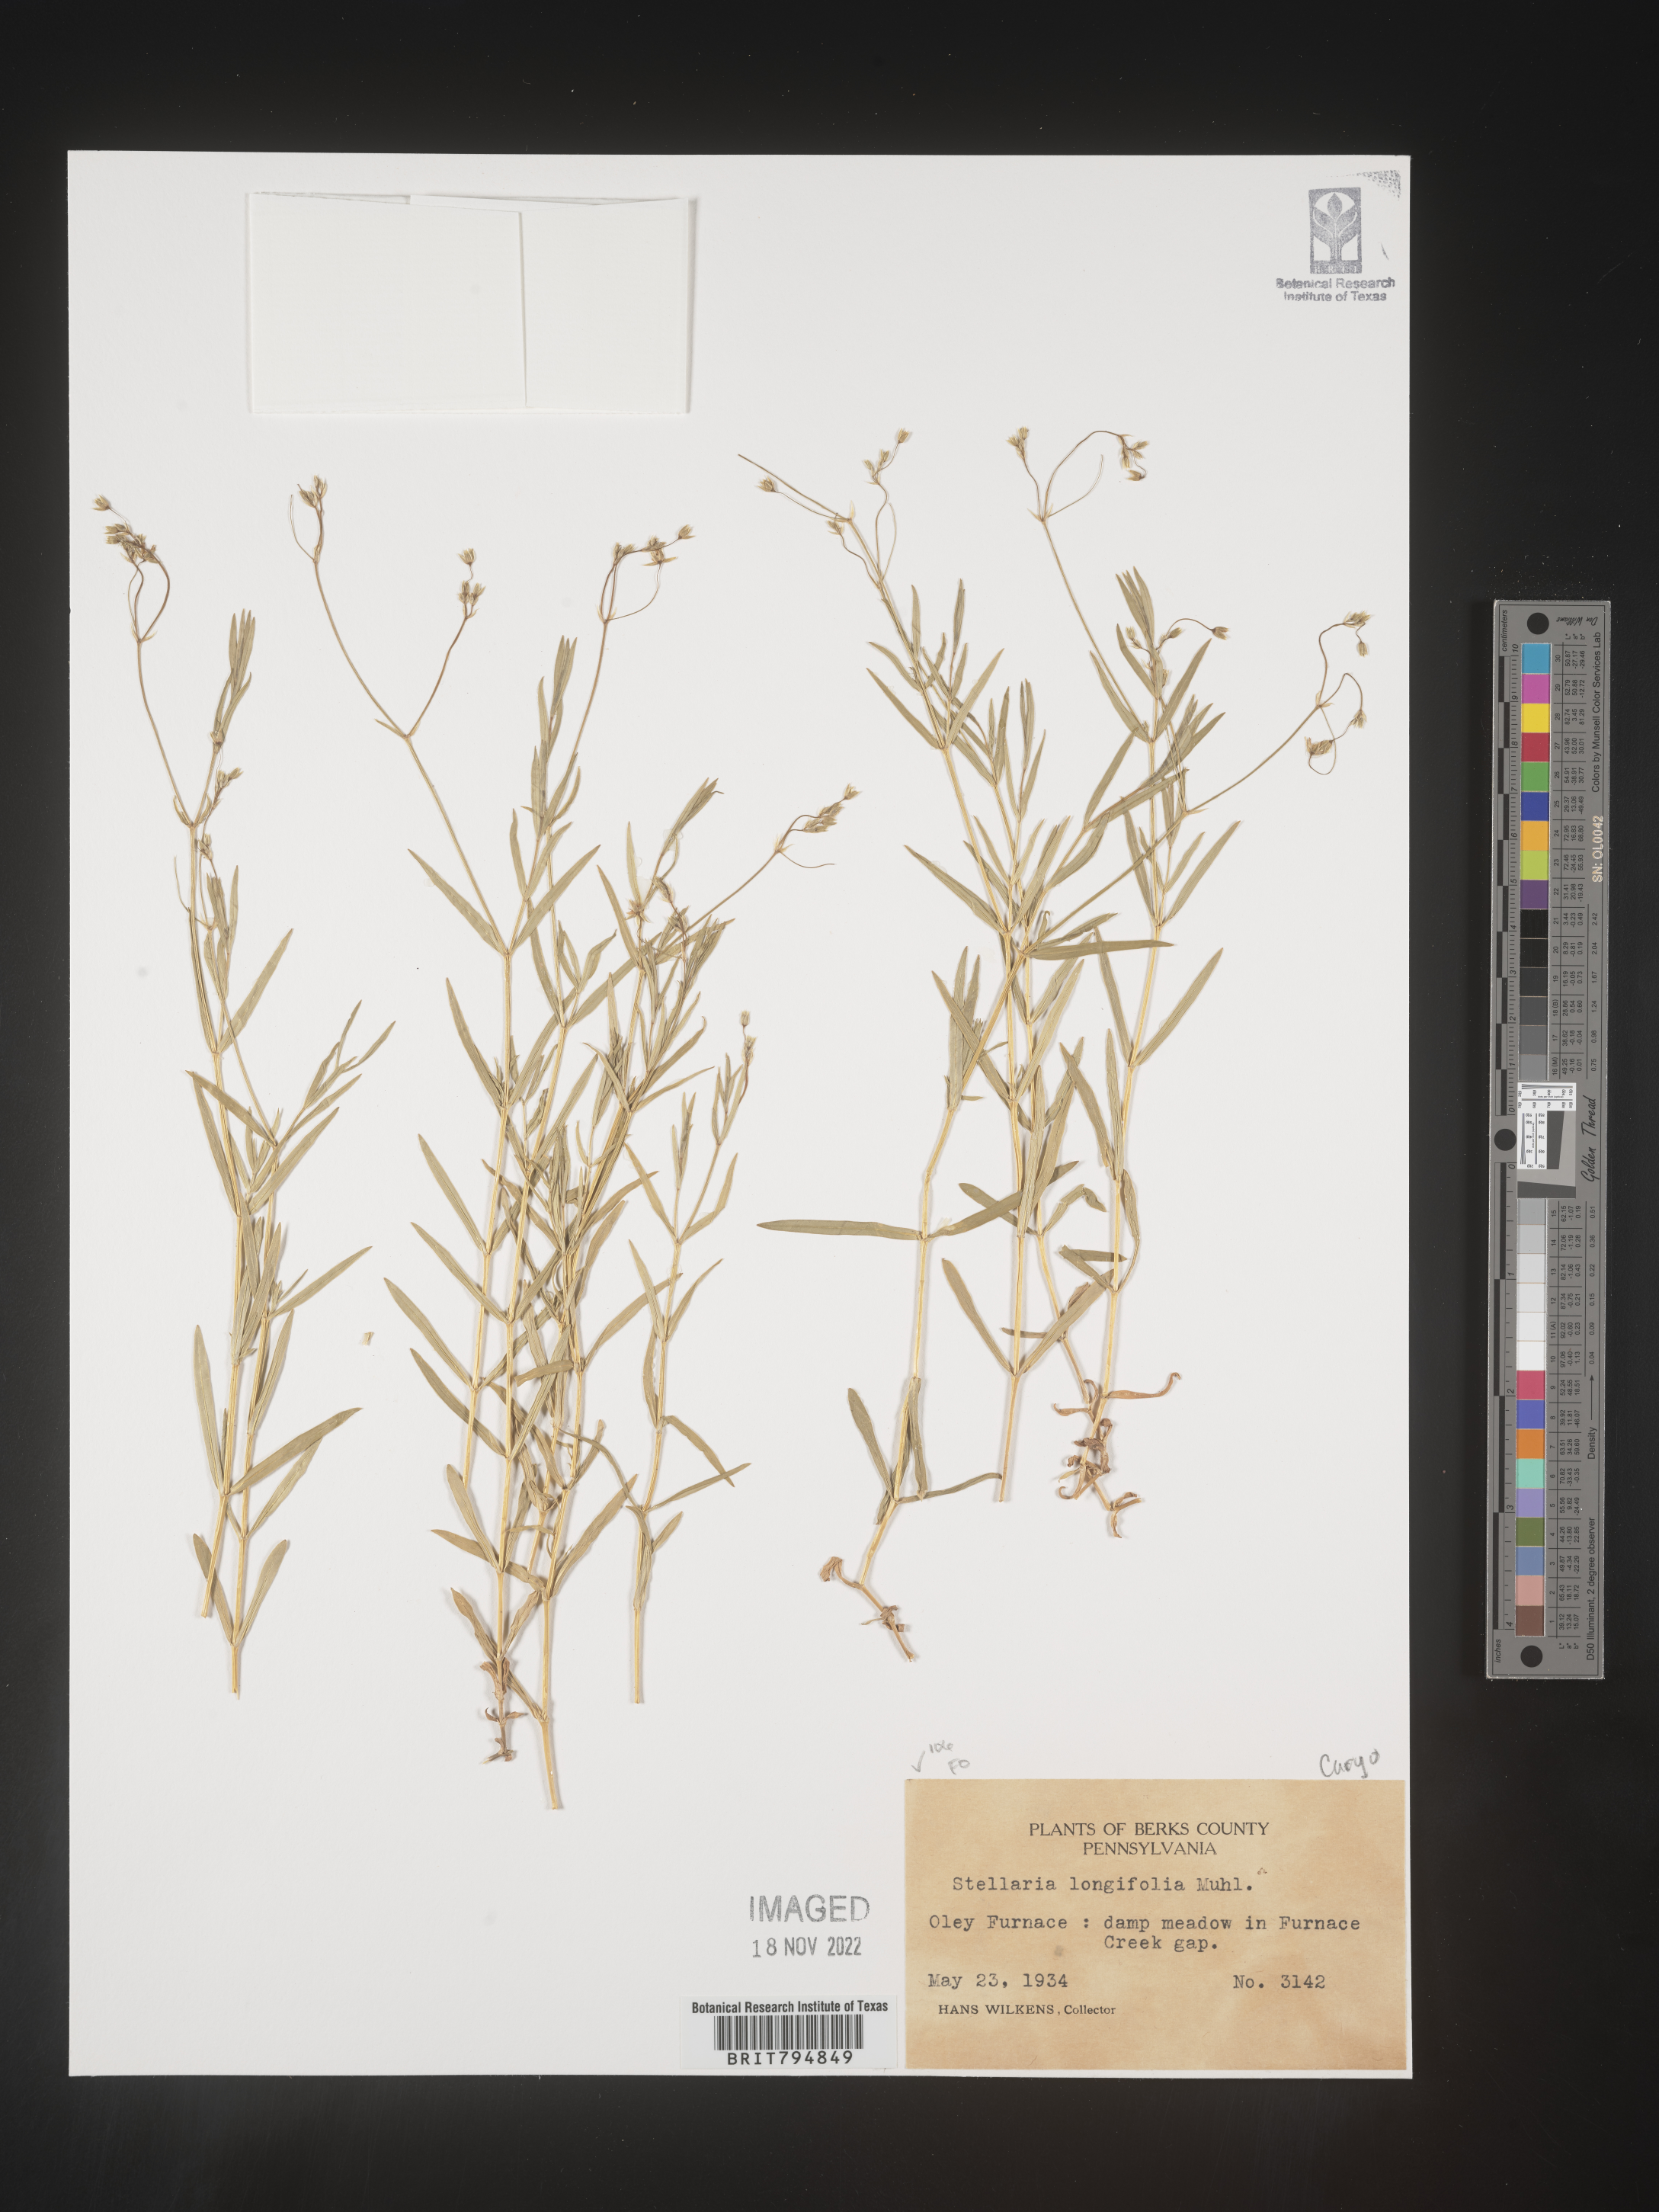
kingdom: Plantae
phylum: Tracheophyta
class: Magnoliopsida
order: Caryophyllales
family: Caryophyllaceae
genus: Stellaria
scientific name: Stellaria longifolia
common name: Long-leaved chickweed
